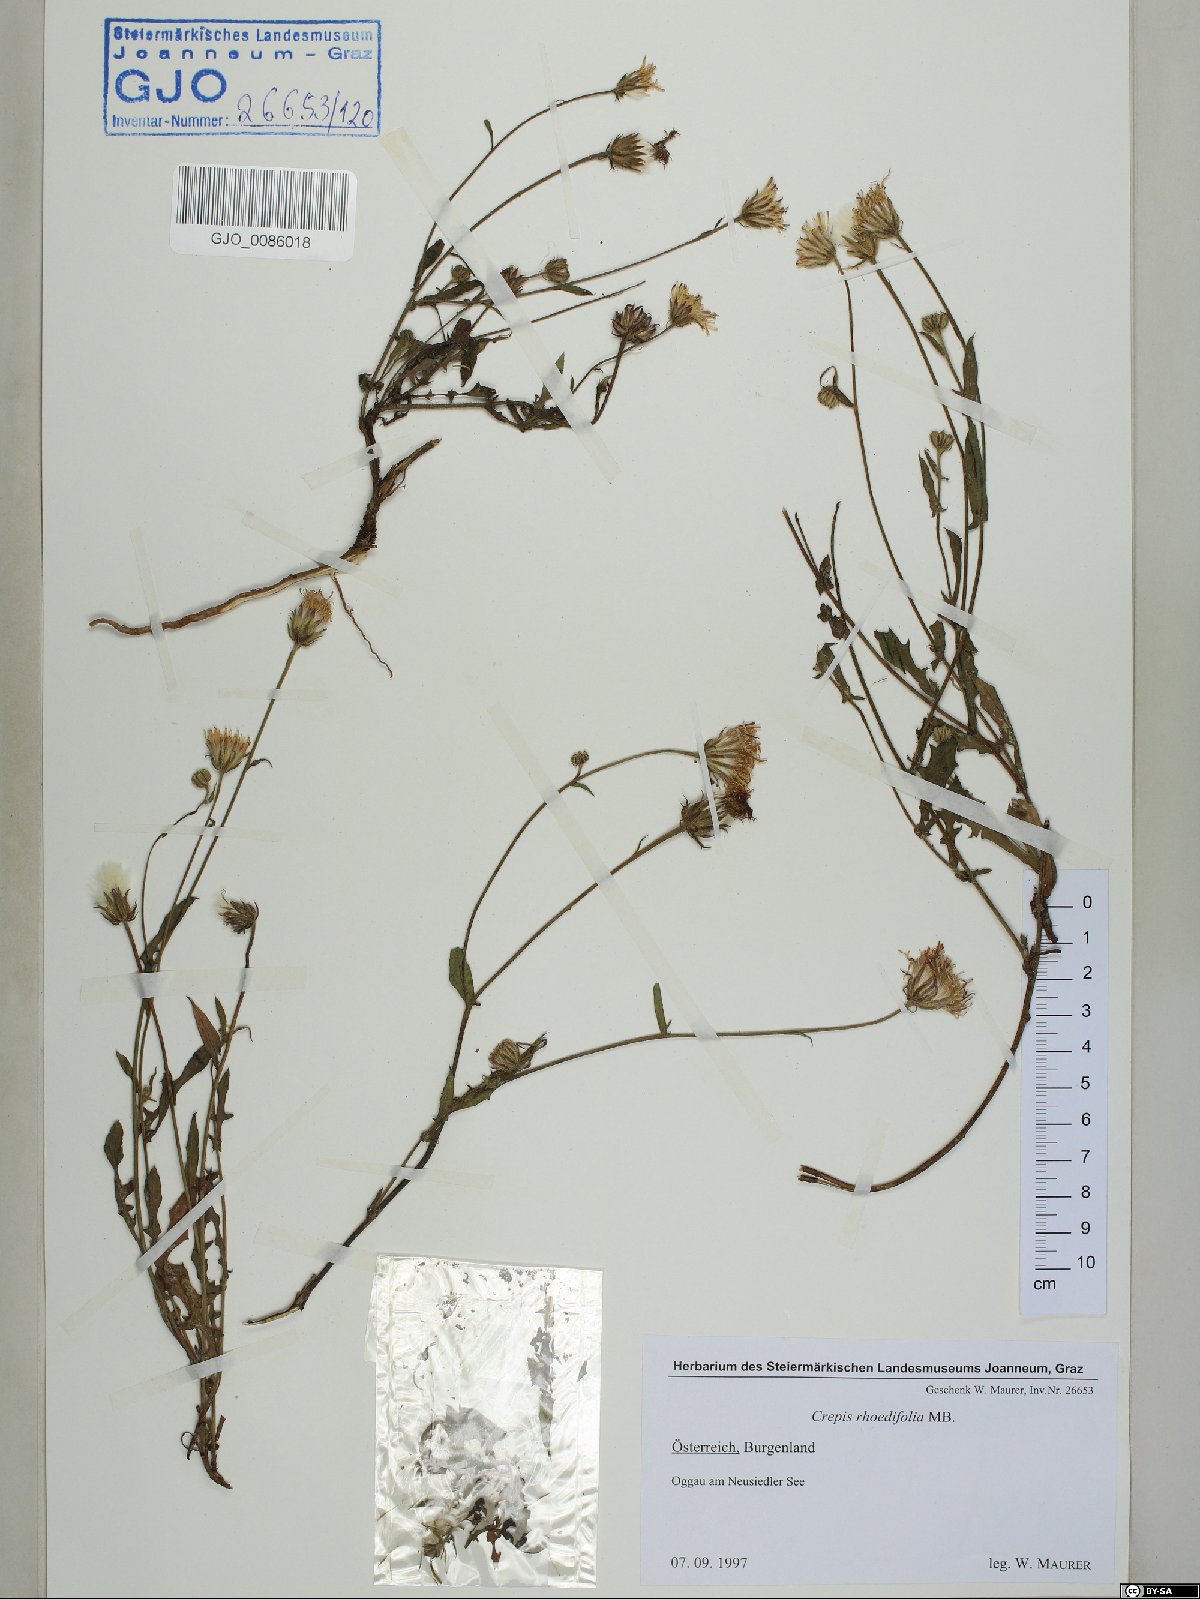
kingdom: Plantae
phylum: Tracheophyta
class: Magnoliopsida
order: Asterales
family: Asteraceae
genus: Crepis
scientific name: Crepis foetida
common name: Stinking hawk's-beard
